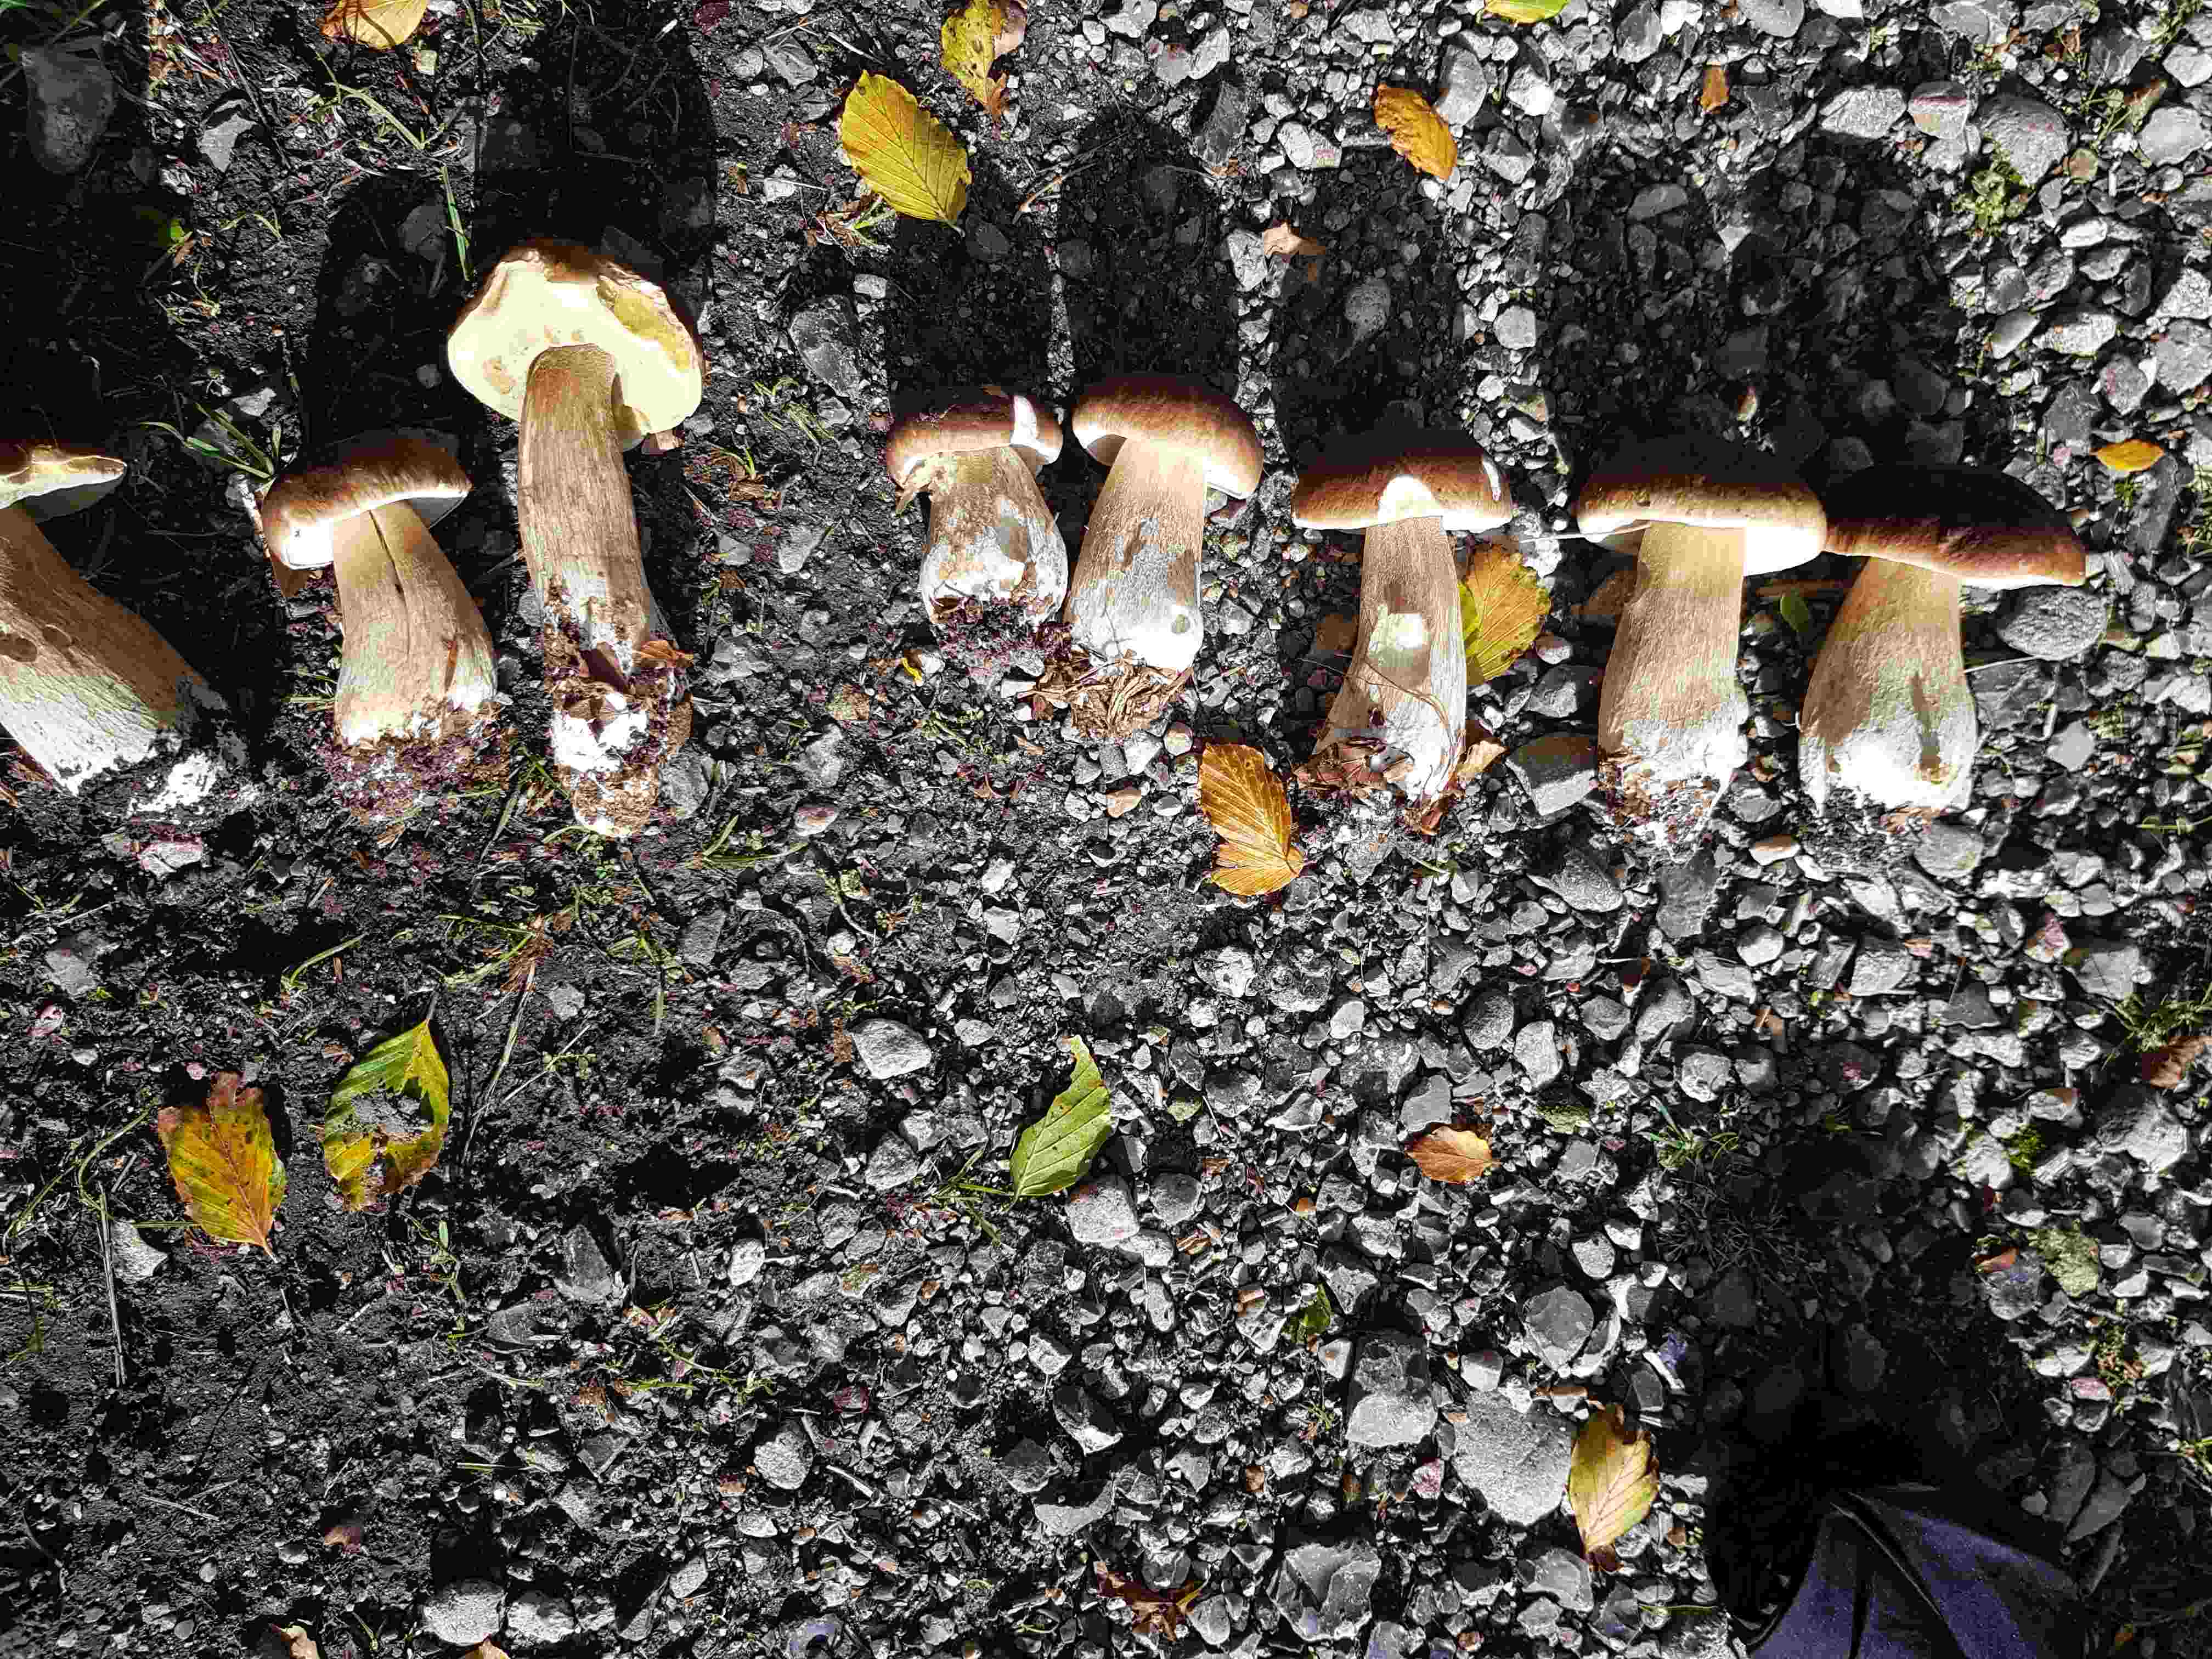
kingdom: Fungi
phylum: Basidiomycota
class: Agaricomycetes
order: Boletales
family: Boletaceae
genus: Boletus
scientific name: Boletus edulis
